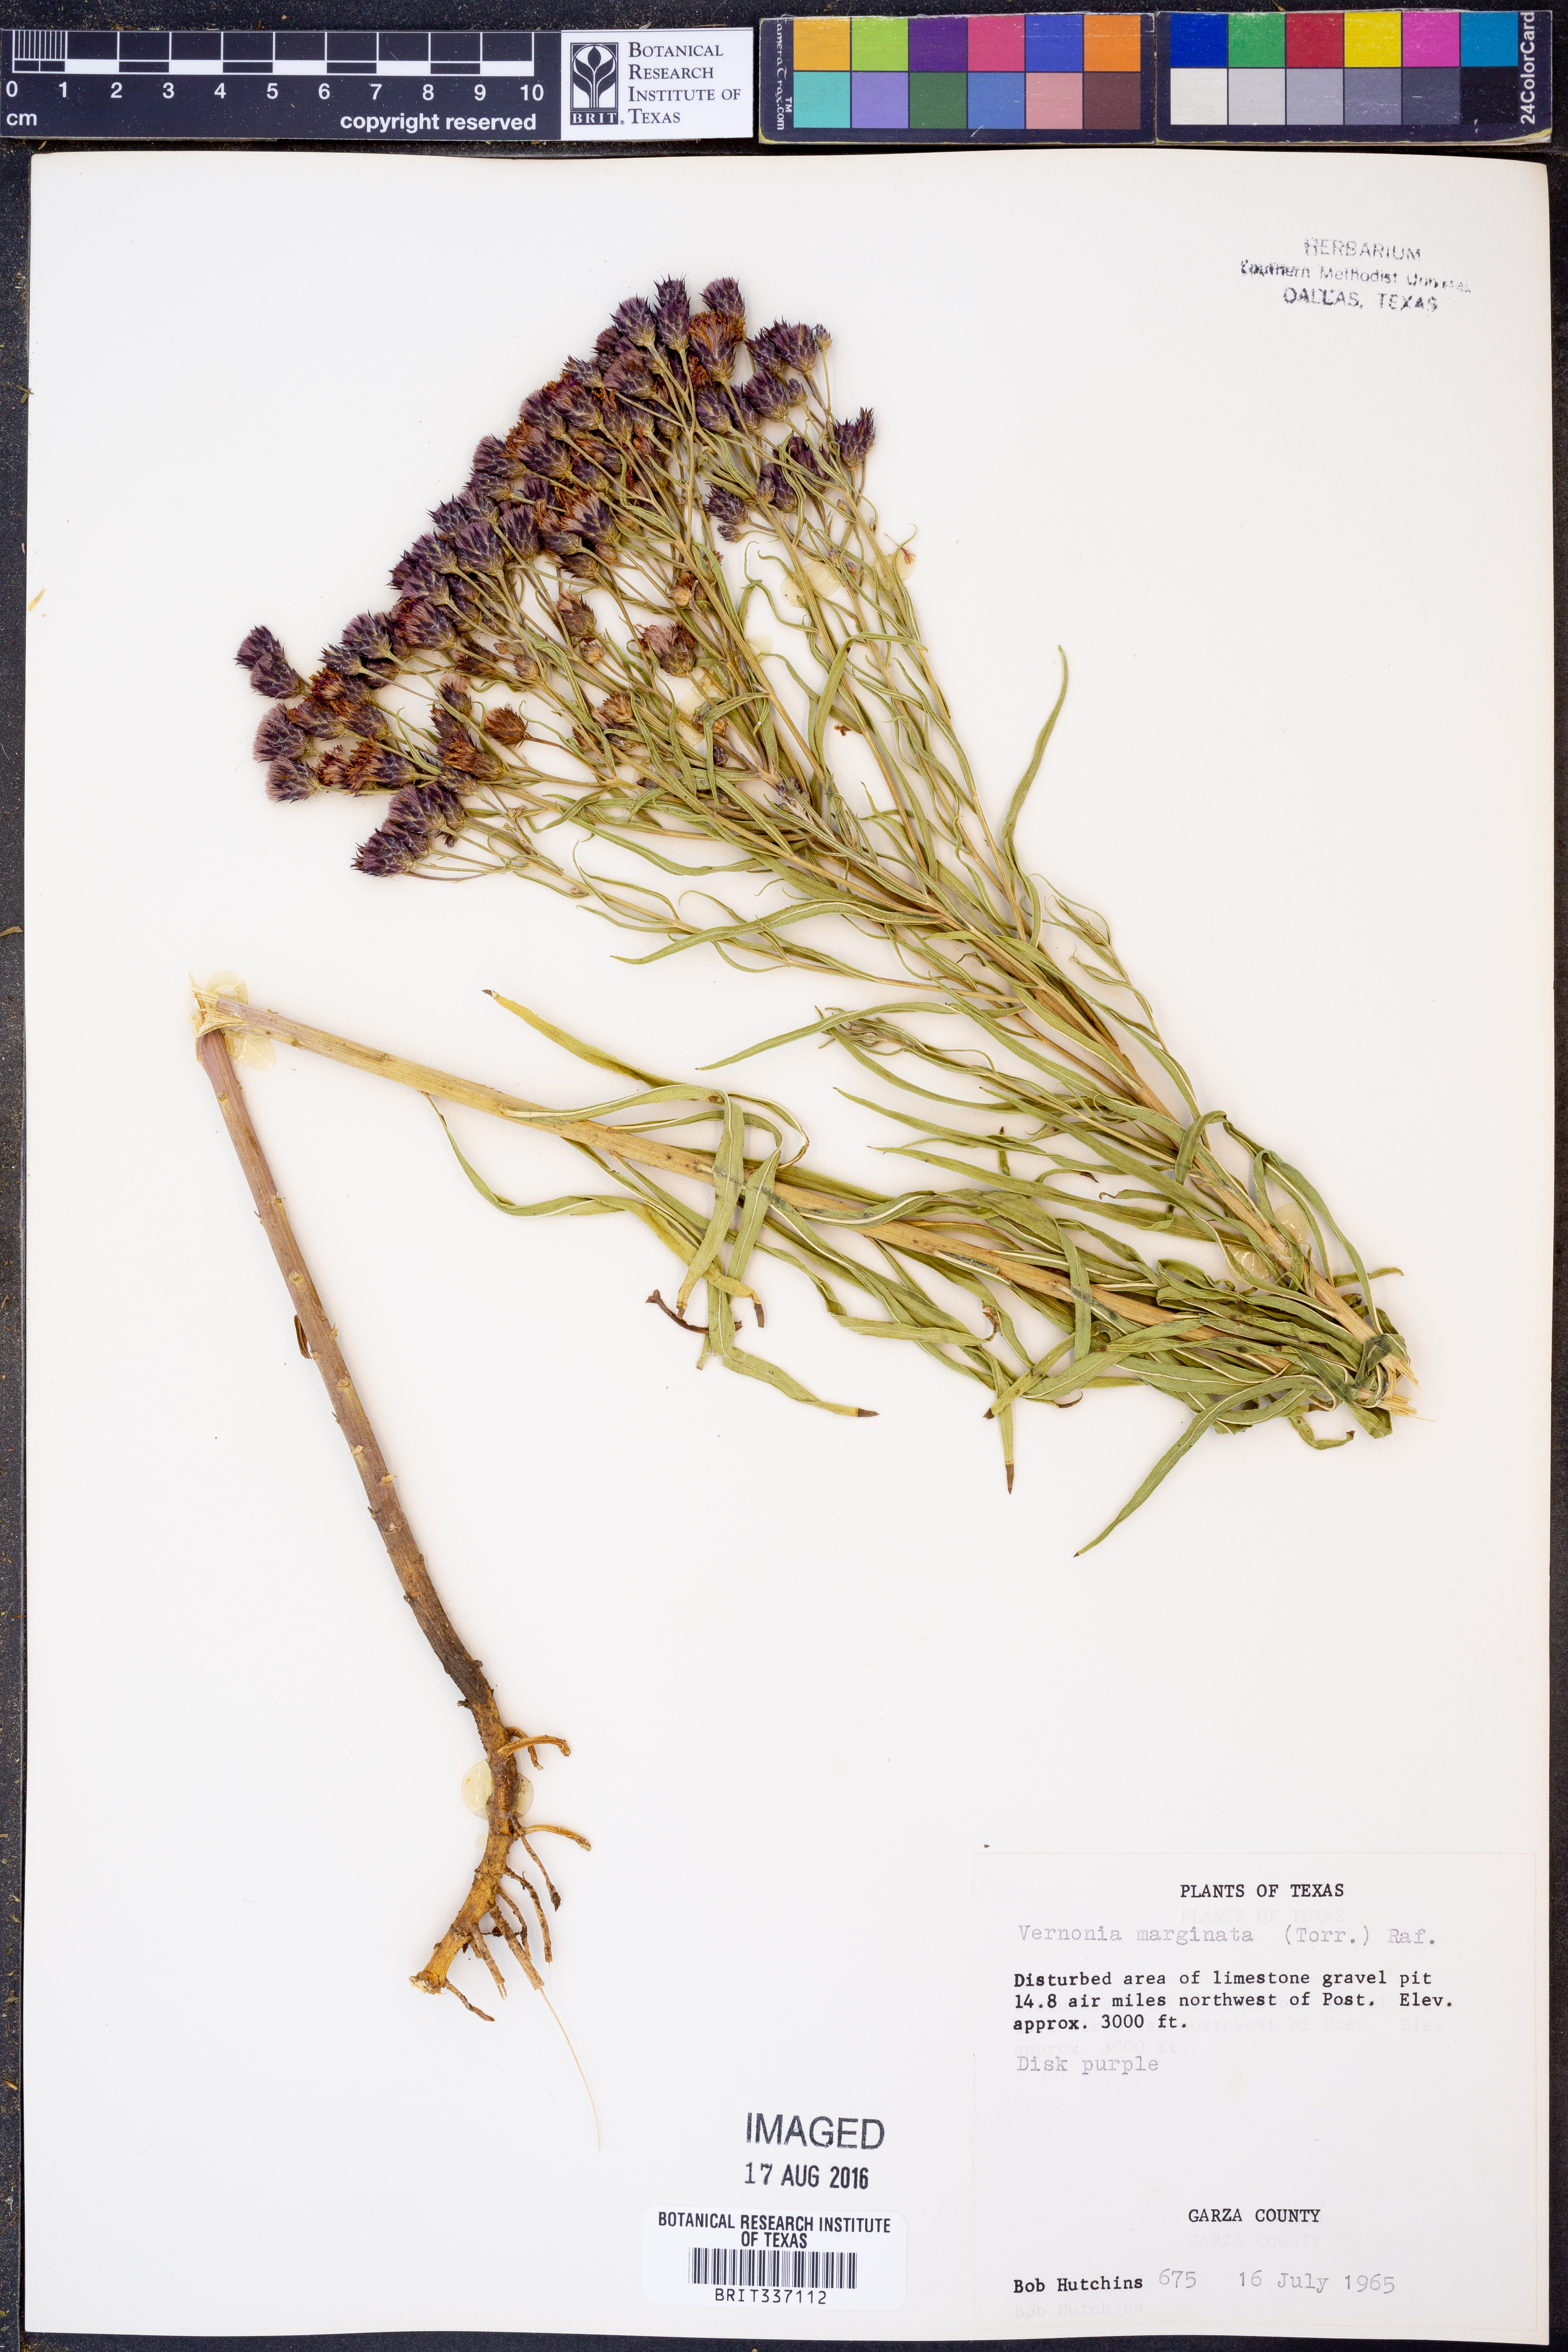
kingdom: Plantae
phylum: Tracheophyta
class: Magnoliopsida
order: Asterales
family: Asteraceae
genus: Vernonia
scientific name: Vernonia marginata
